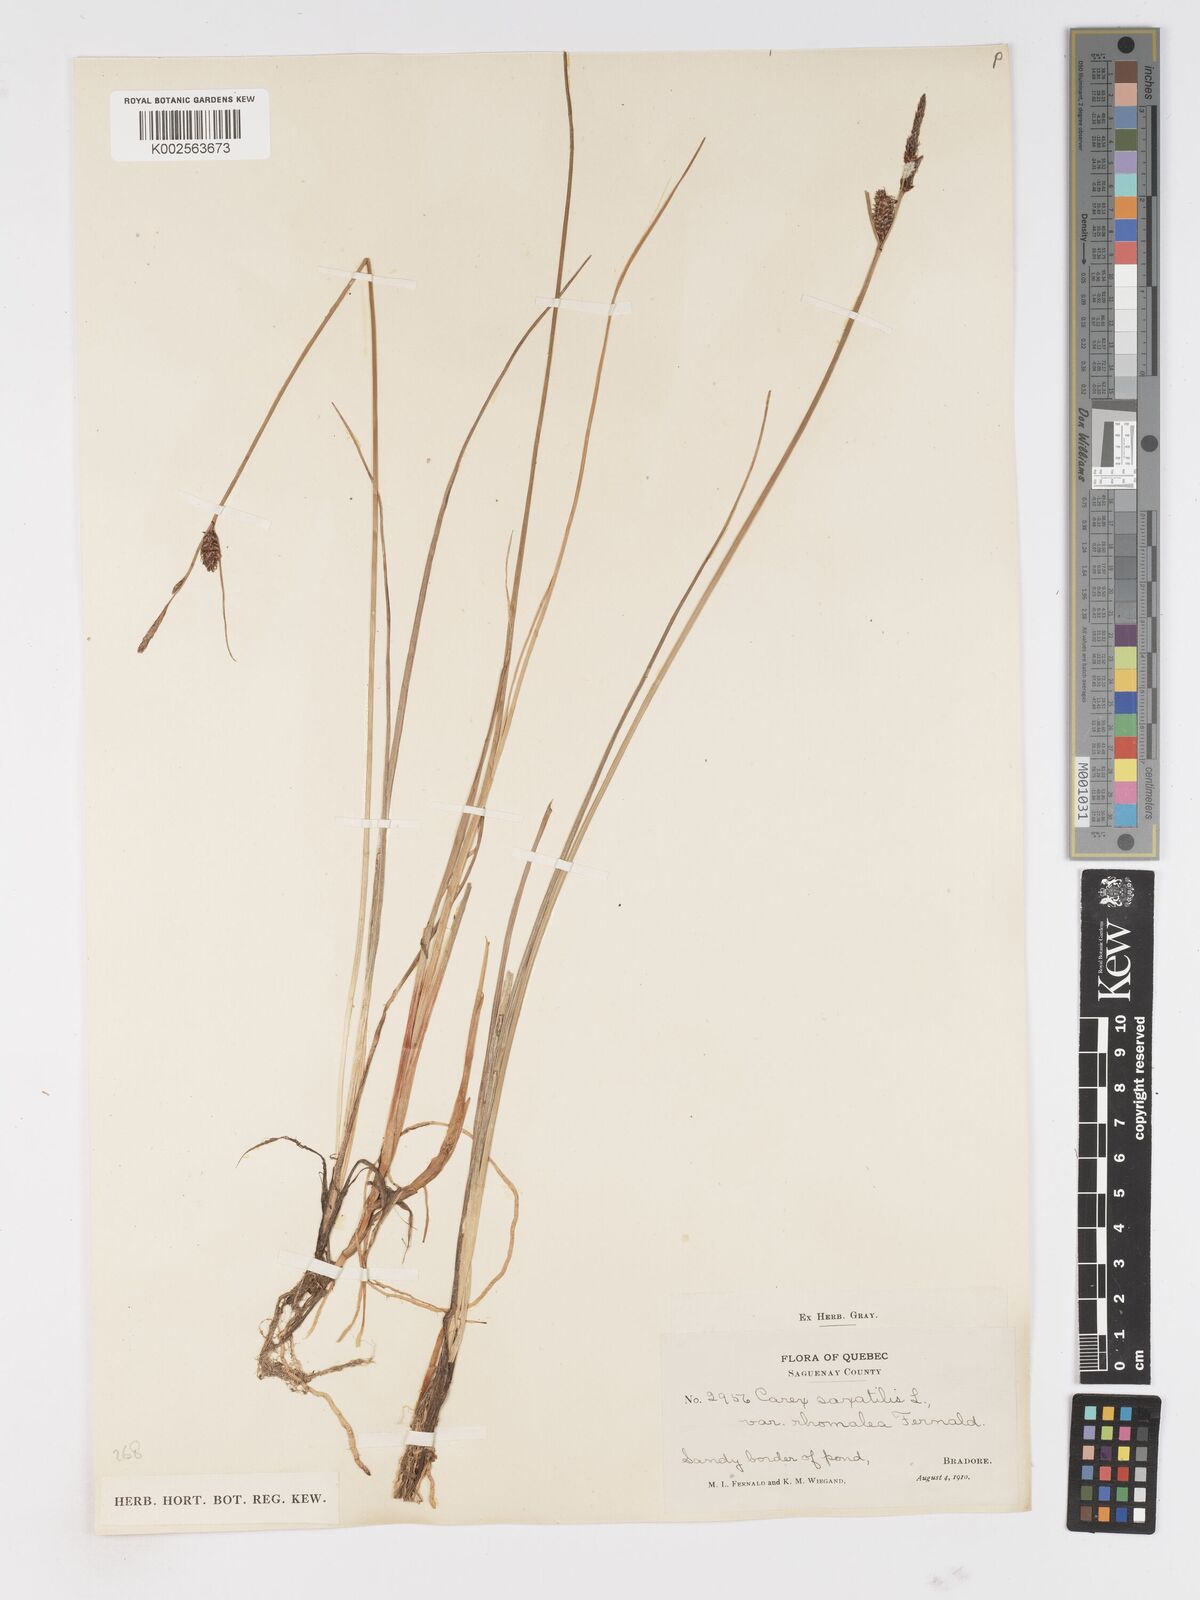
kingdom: Plantae
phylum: Tracheophyta
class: Liliopsida
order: Poales
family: Cyperaceae
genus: Carex
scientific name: Carex saxatilis
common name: Russet sedge
